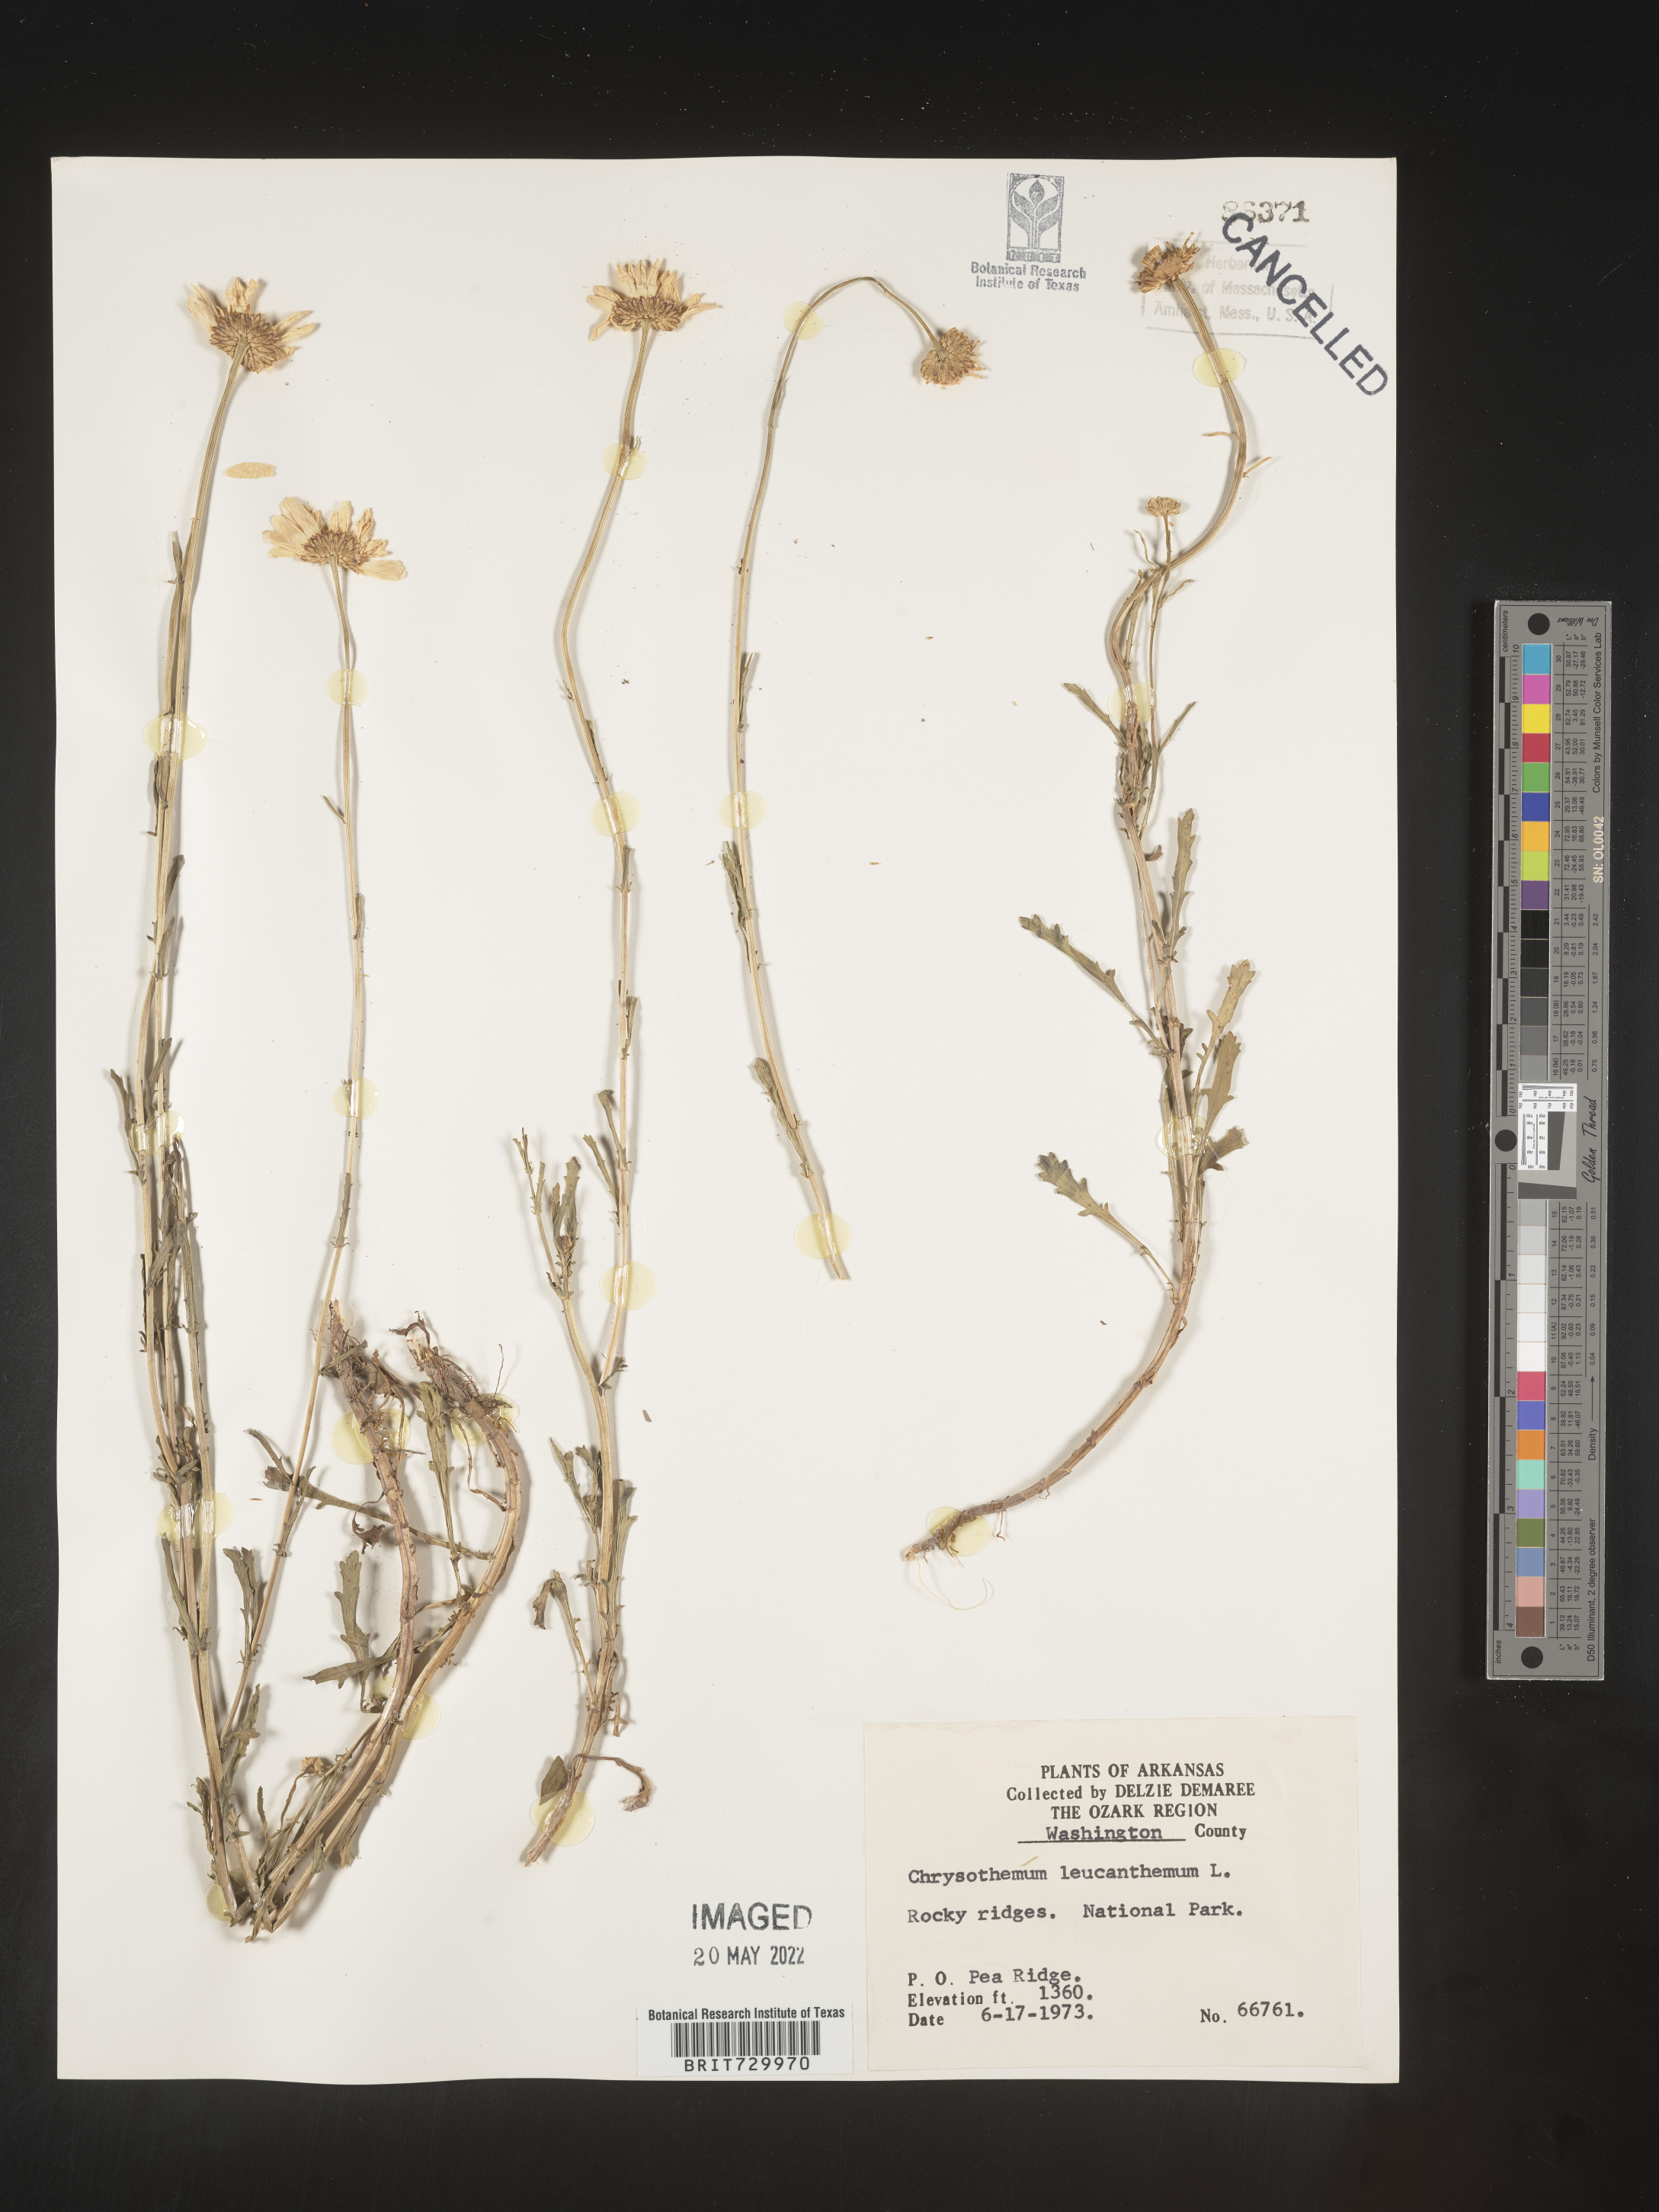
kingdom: Plantae
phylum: Tracheophyta
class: Magnoliopsida
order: Asterales
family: Asteraceae
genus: Leucanthemum
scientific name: Leucanthemum vulgare
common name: Oxeye daisy
